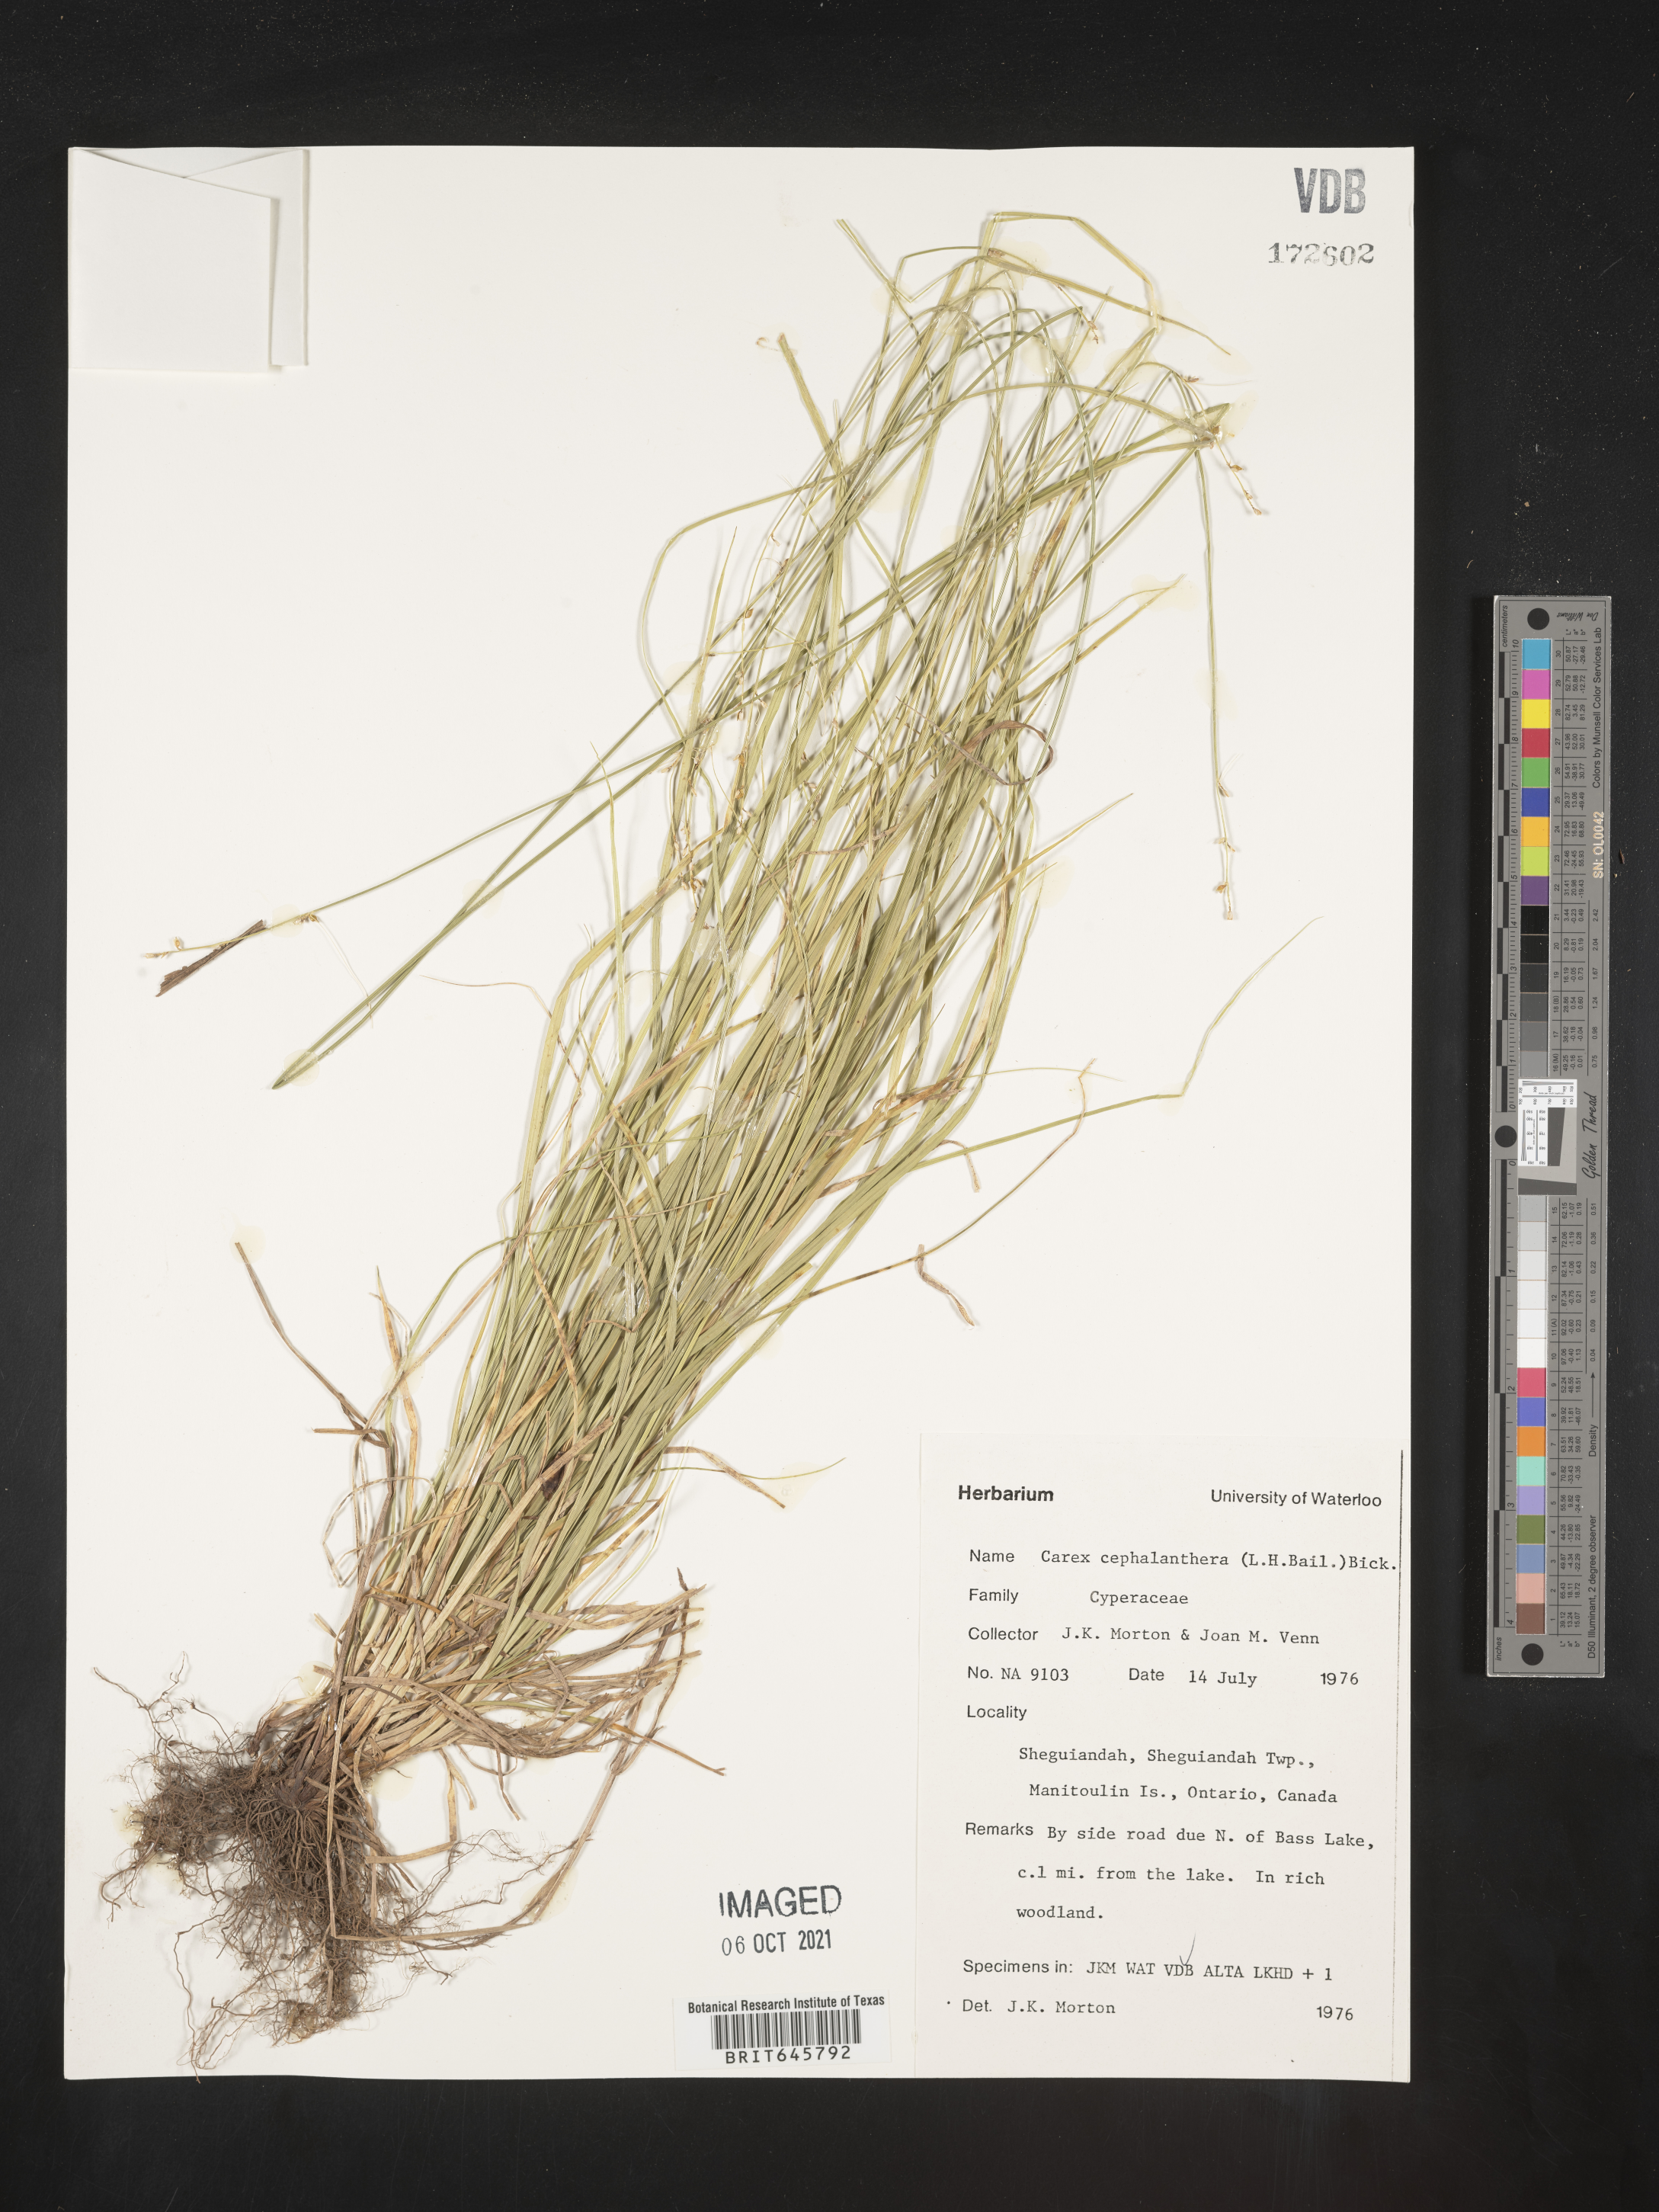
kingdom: Plantae
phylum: Tracheophyta
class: Liliopsida
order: Poales
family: Cyperaceae
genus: Carex
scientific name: Carex echinata
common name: Star sedge
